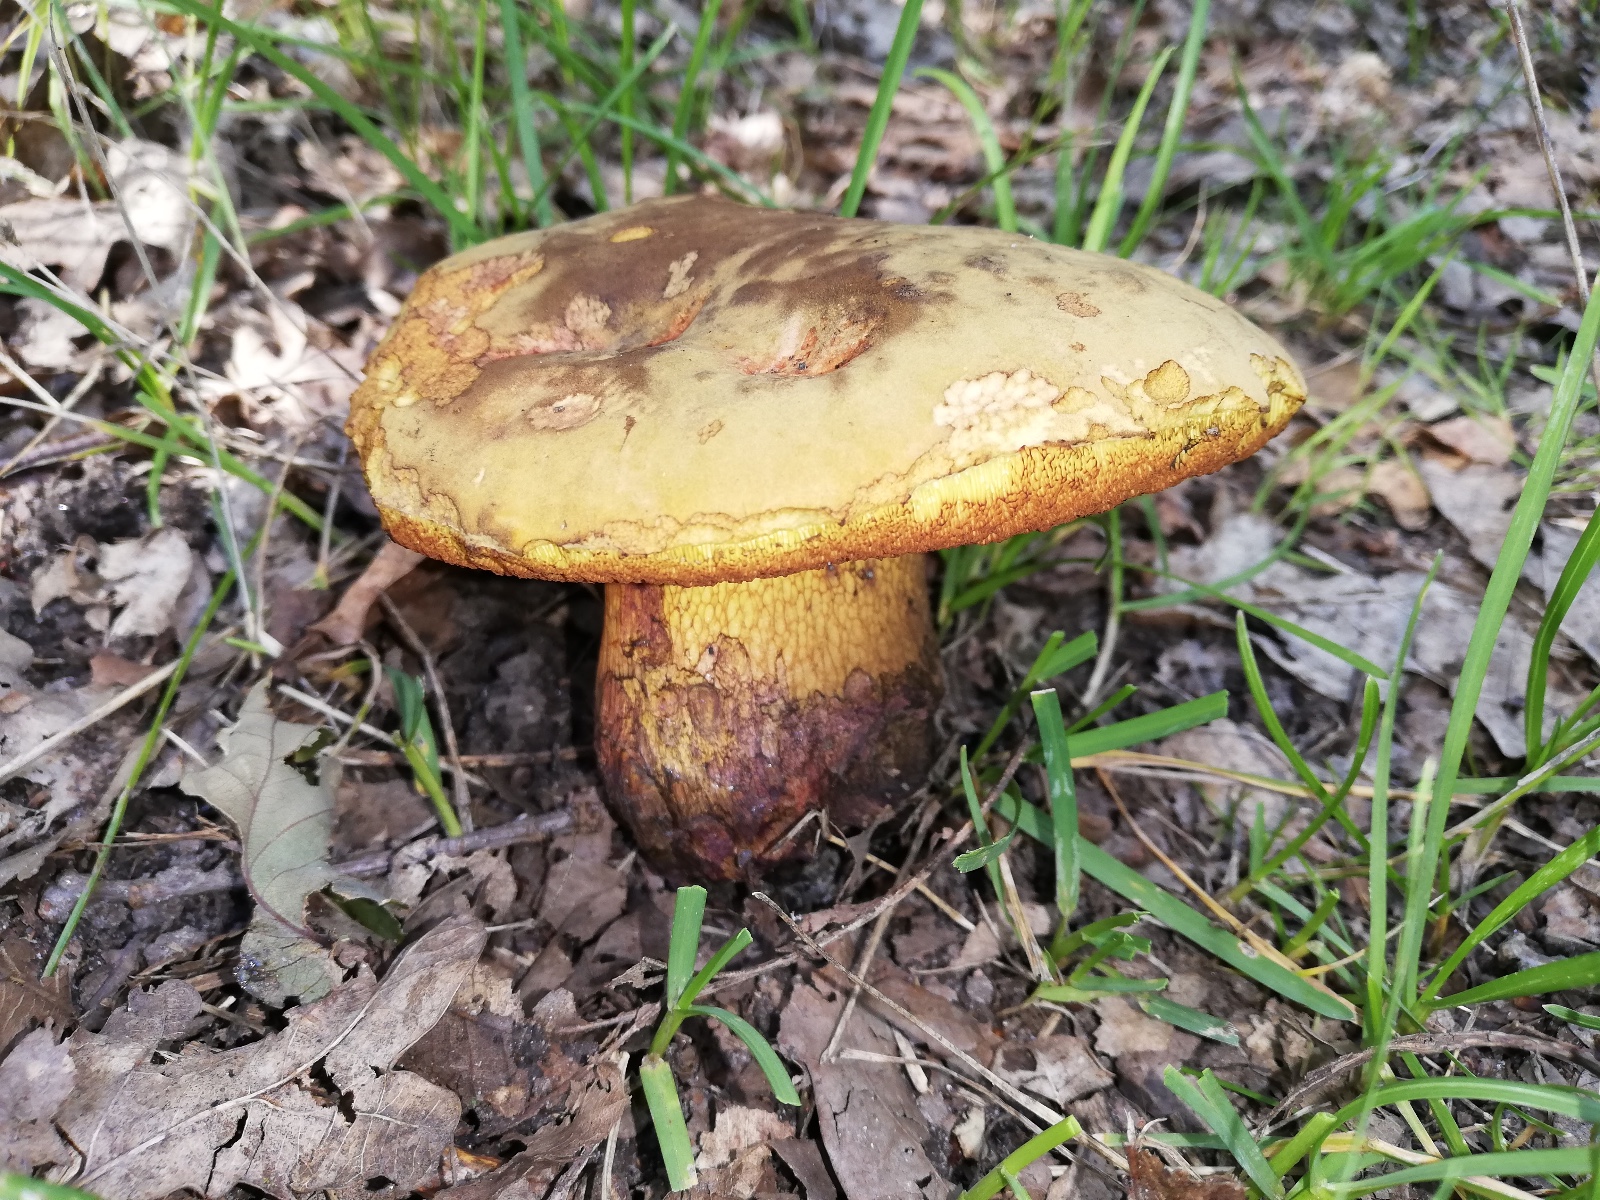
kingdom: Fungi
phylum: Basidiomycota
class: Agaricomycetes
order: Boletales
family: Boletaceae
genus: Suillellus
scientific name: Suillellus luridus
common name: netstokket indigorørhat
